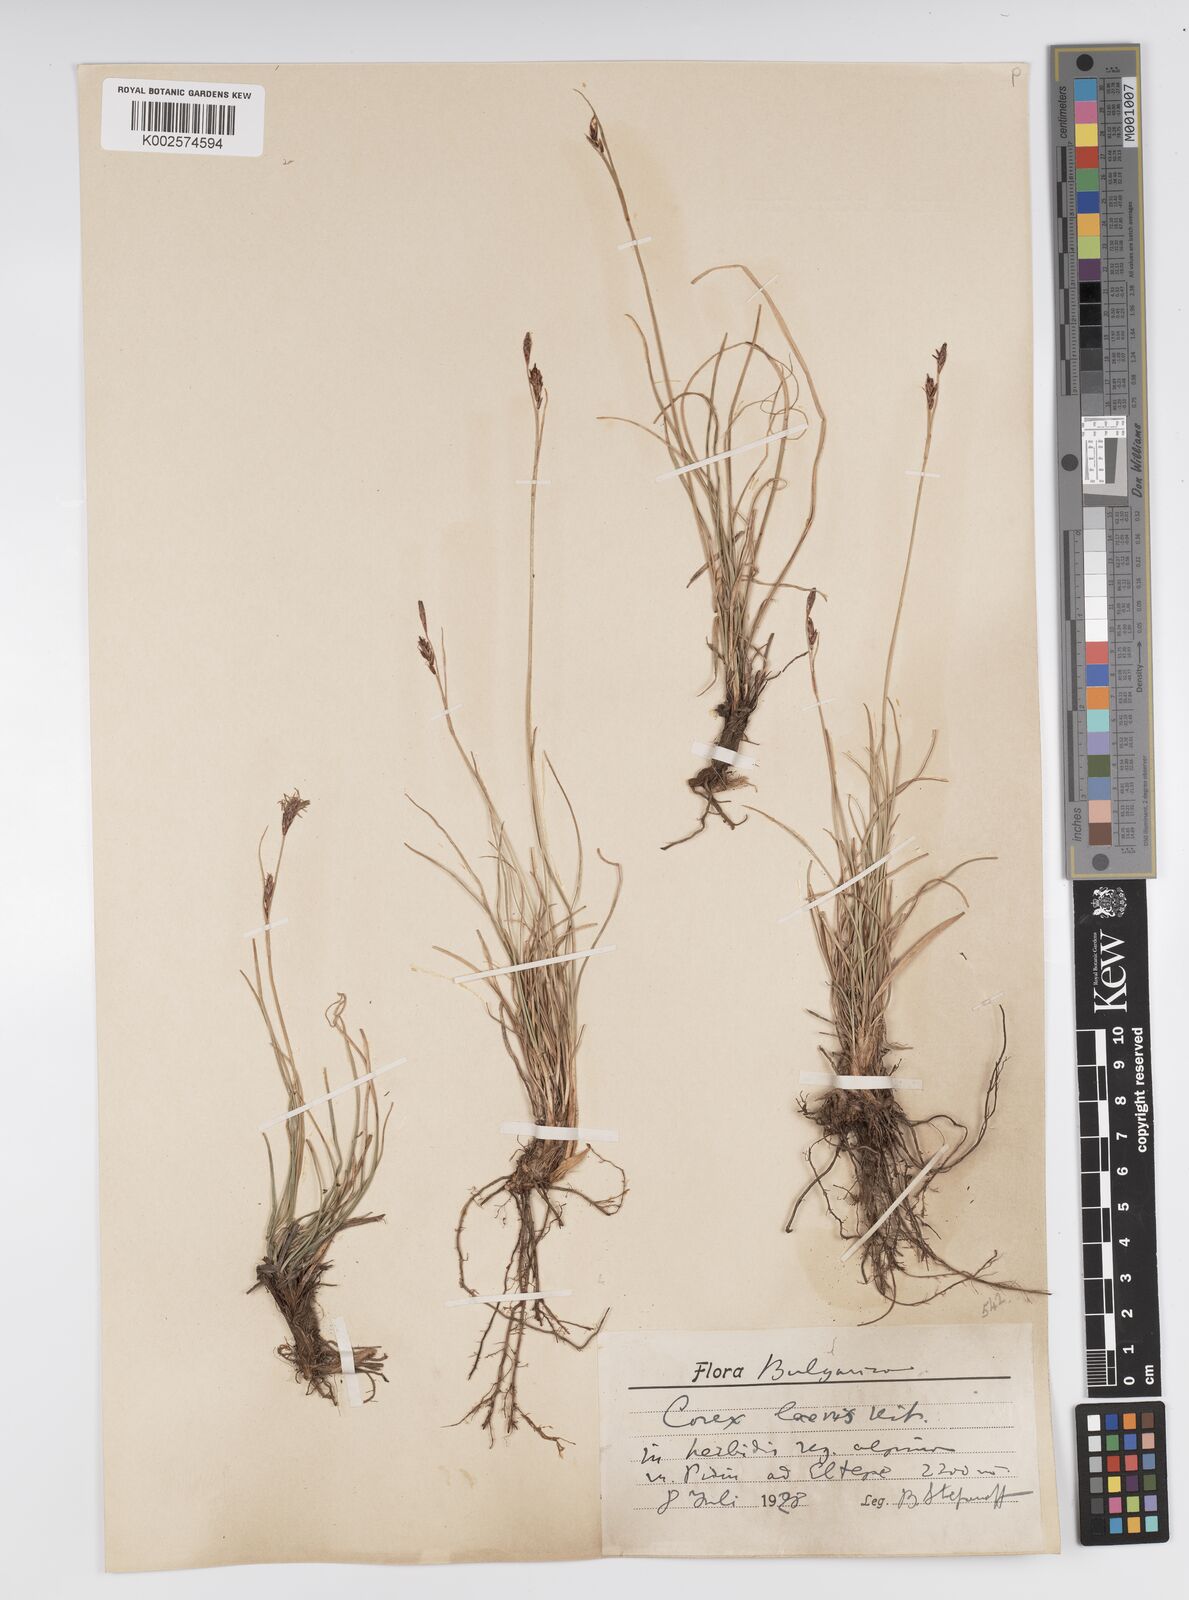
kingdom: Plantae
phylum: Tracheophyta
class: Liliopsida
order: Poales
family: Cyperaceae
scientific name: Cyperaceae
